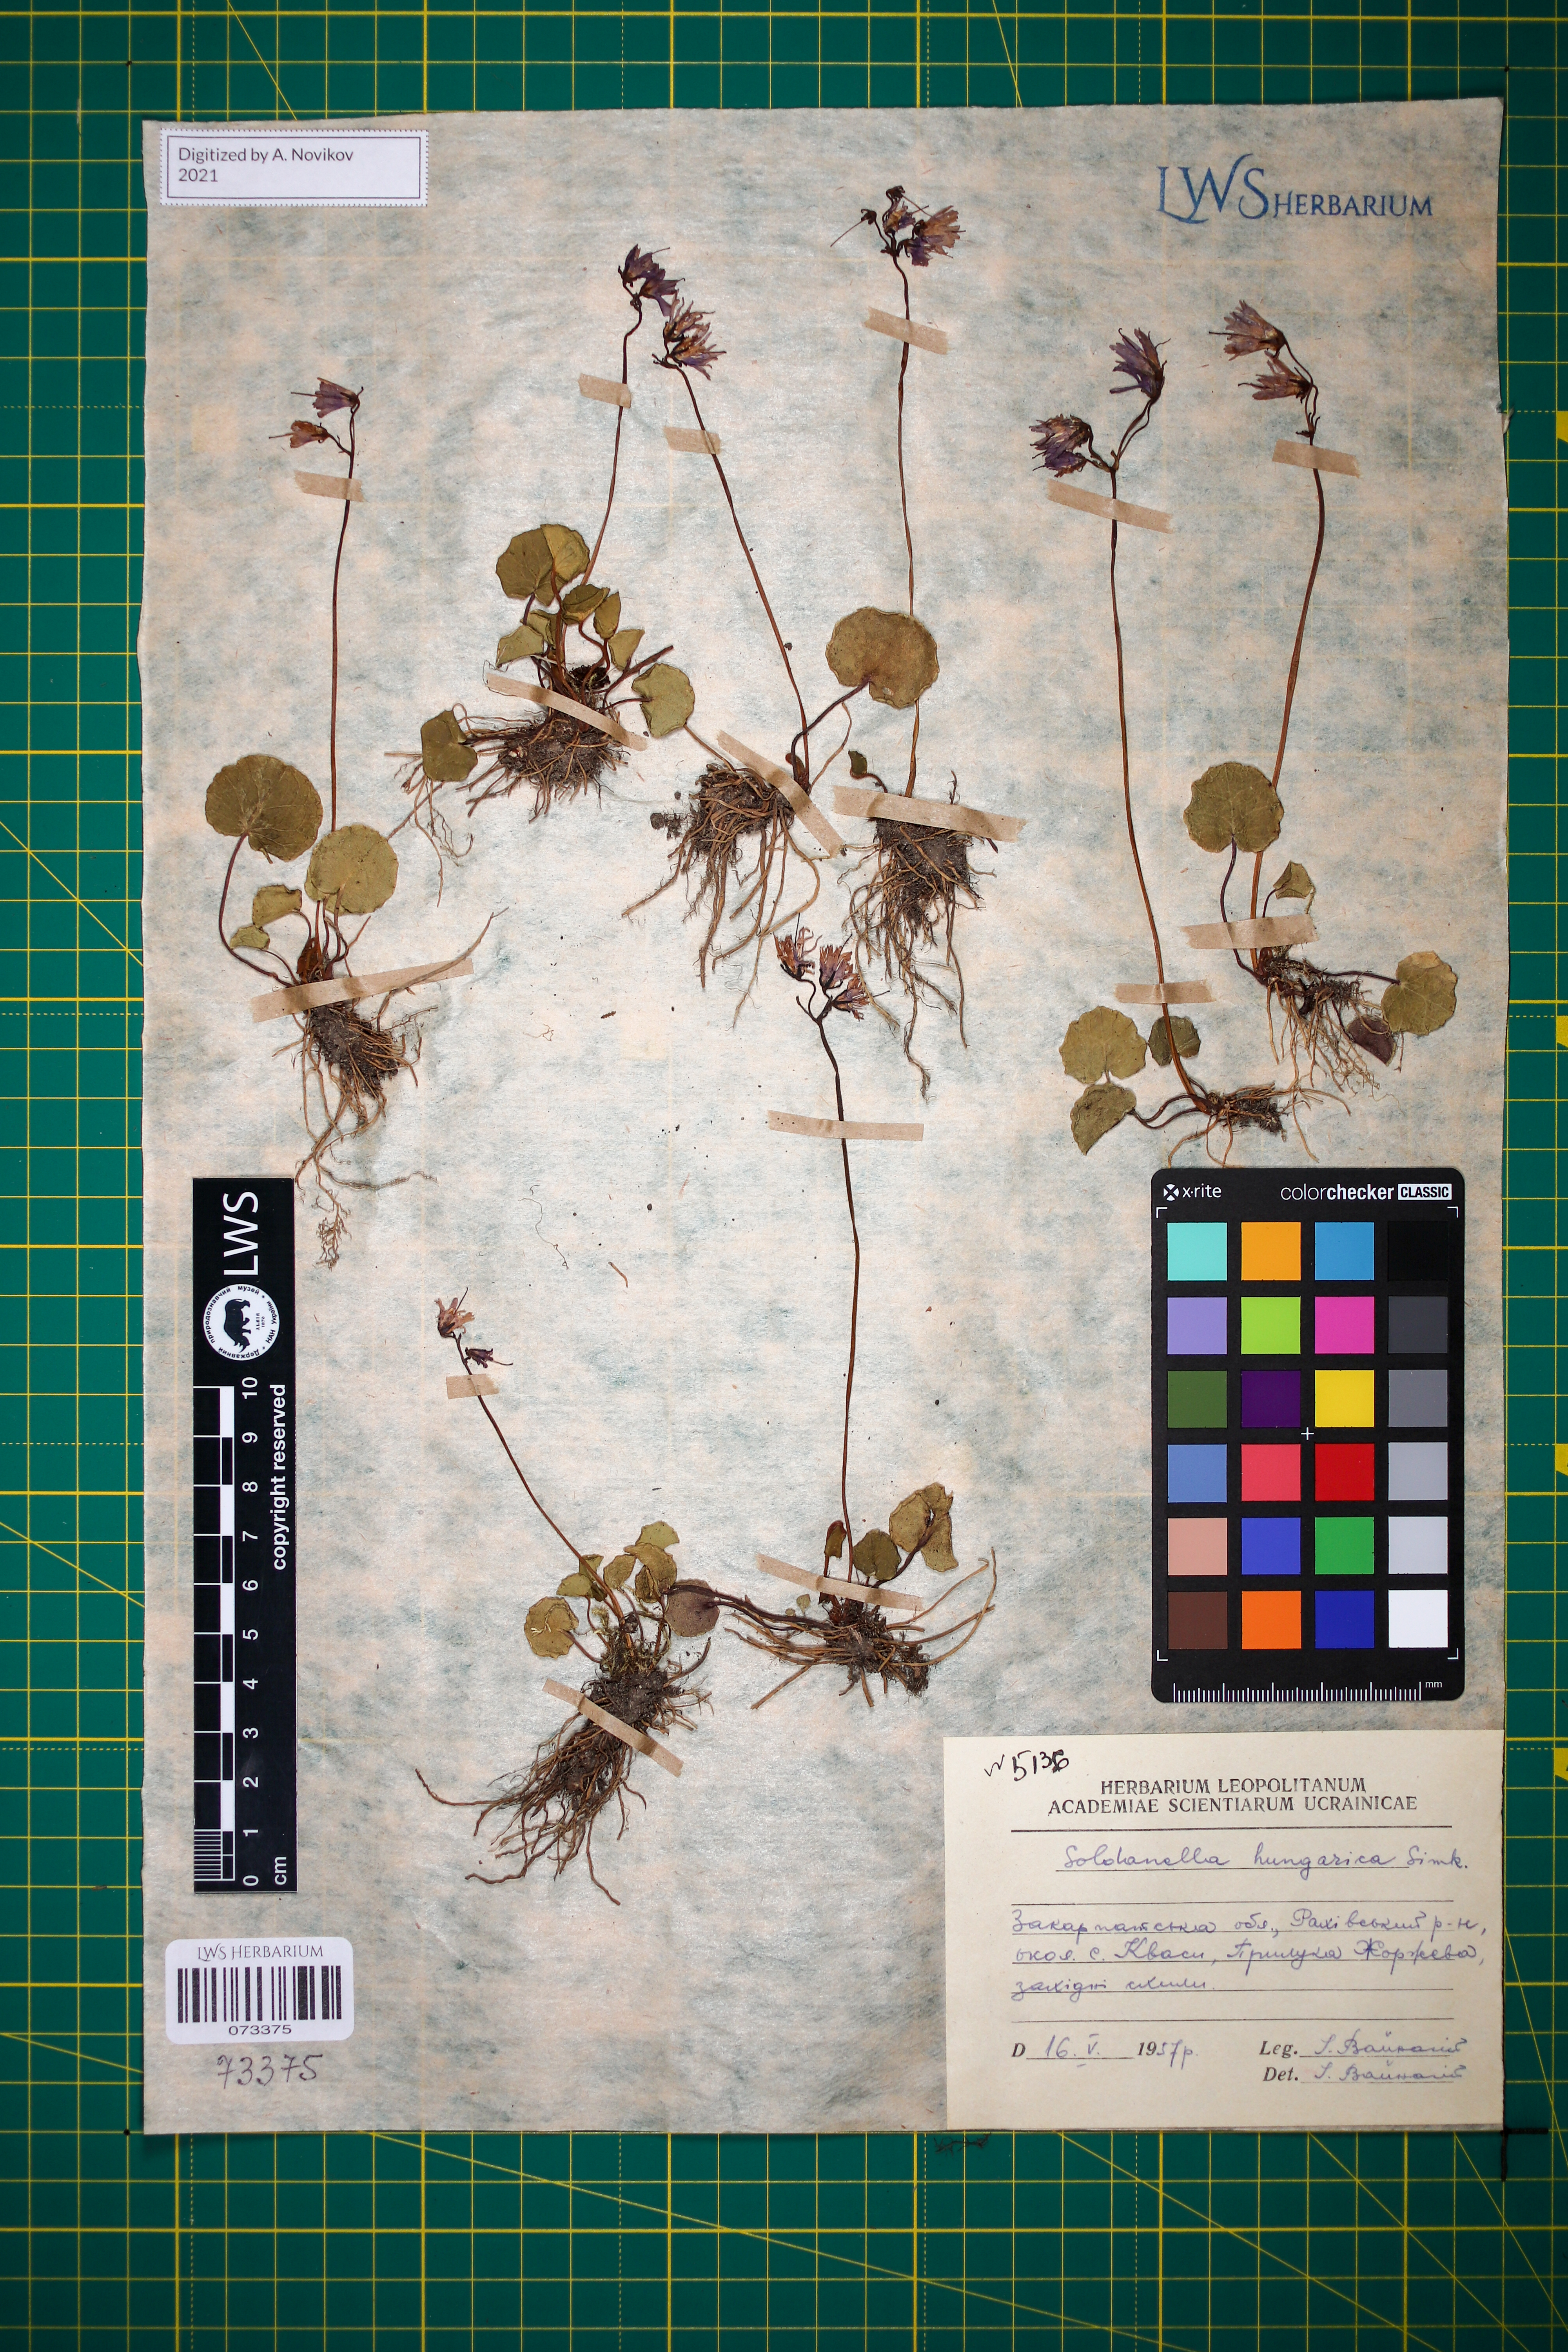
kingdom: Plantae
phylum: Tracheophyta
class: Magnoliopsida
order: Ericales
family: Primulaceae
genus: Soldanella
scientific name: Soldanella hungarica
